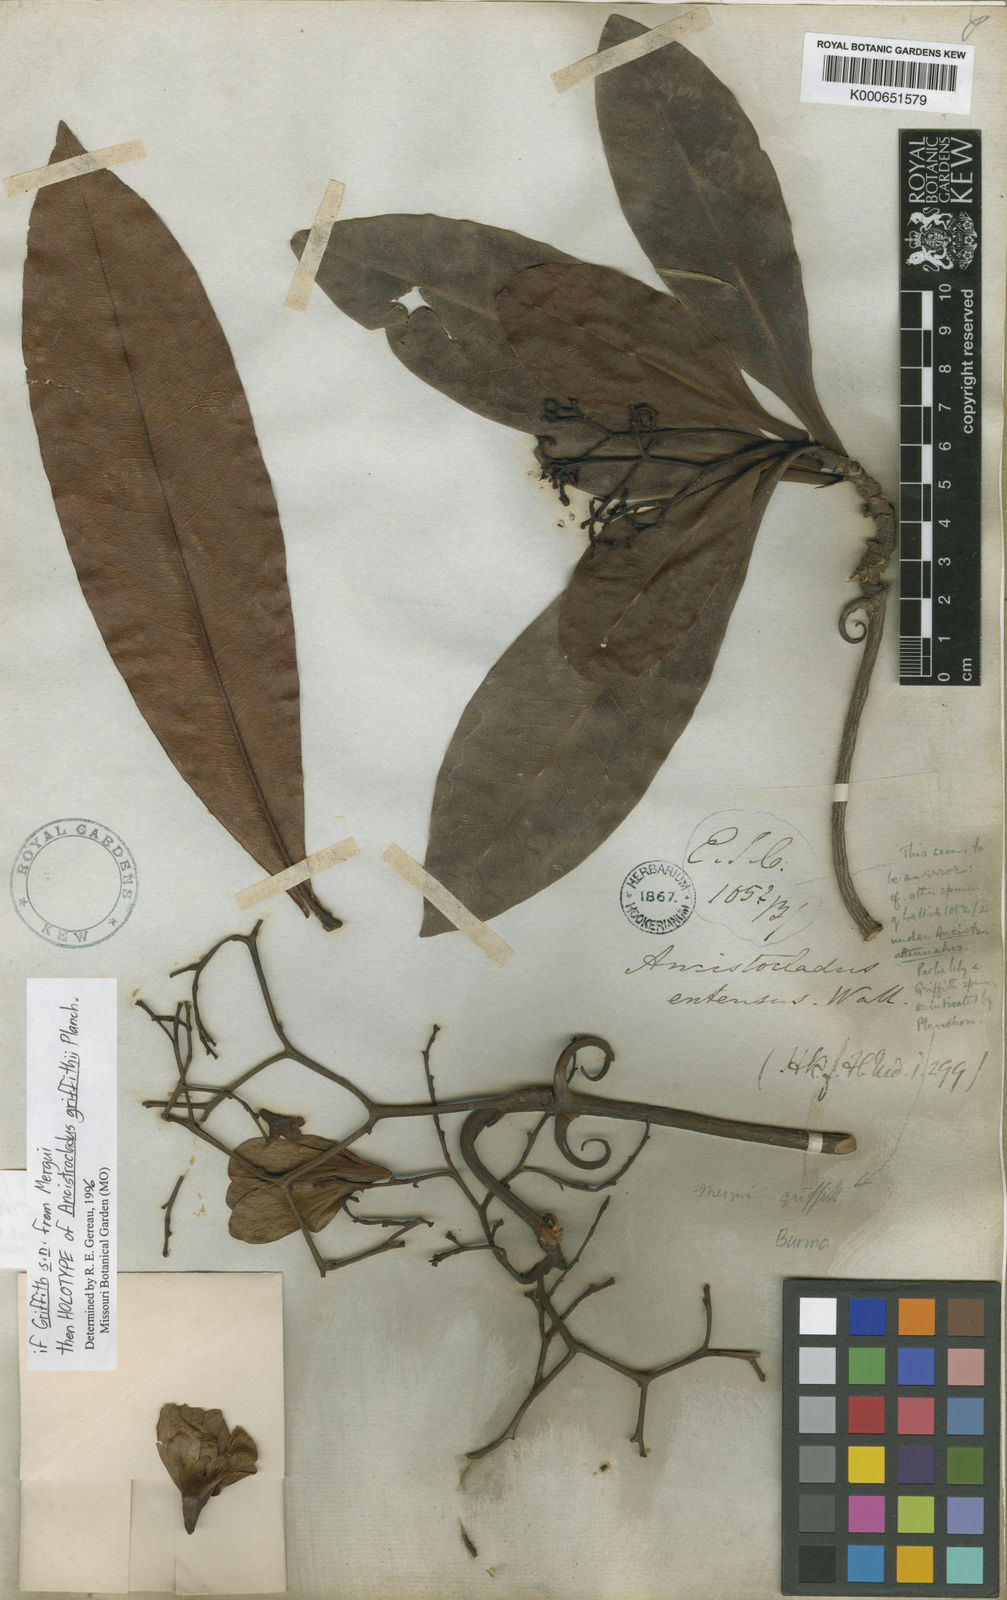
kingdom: Plantae
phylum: Tracheophyta
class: Magnoliopsida
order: Caryophyllales
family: Ancistrocladaceae
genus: Ancistrocladus
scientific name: Ancistrocladus griffithii
